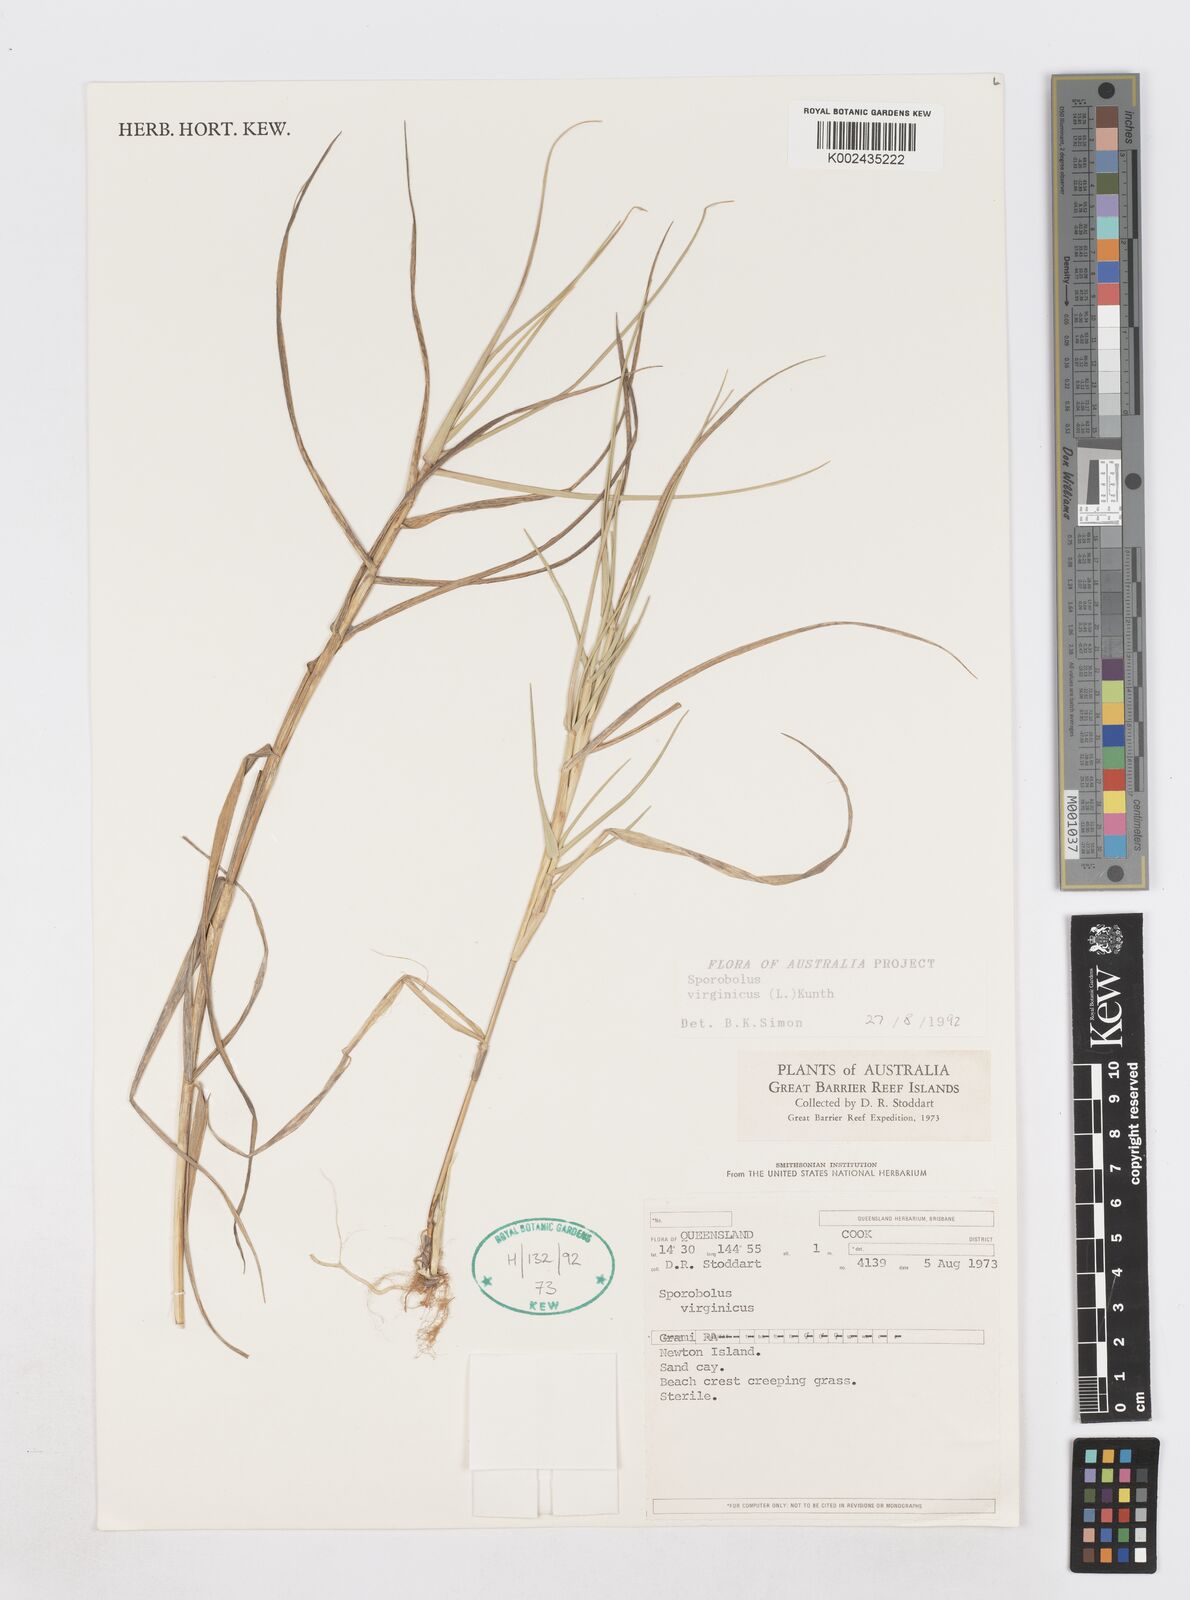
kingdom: Plantae
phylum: Tracheophyta
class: Liliopsida
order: Poales
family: Poaceae
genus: Sporobolus
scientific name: Sporobolus virginicus
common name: Beach dropseed
